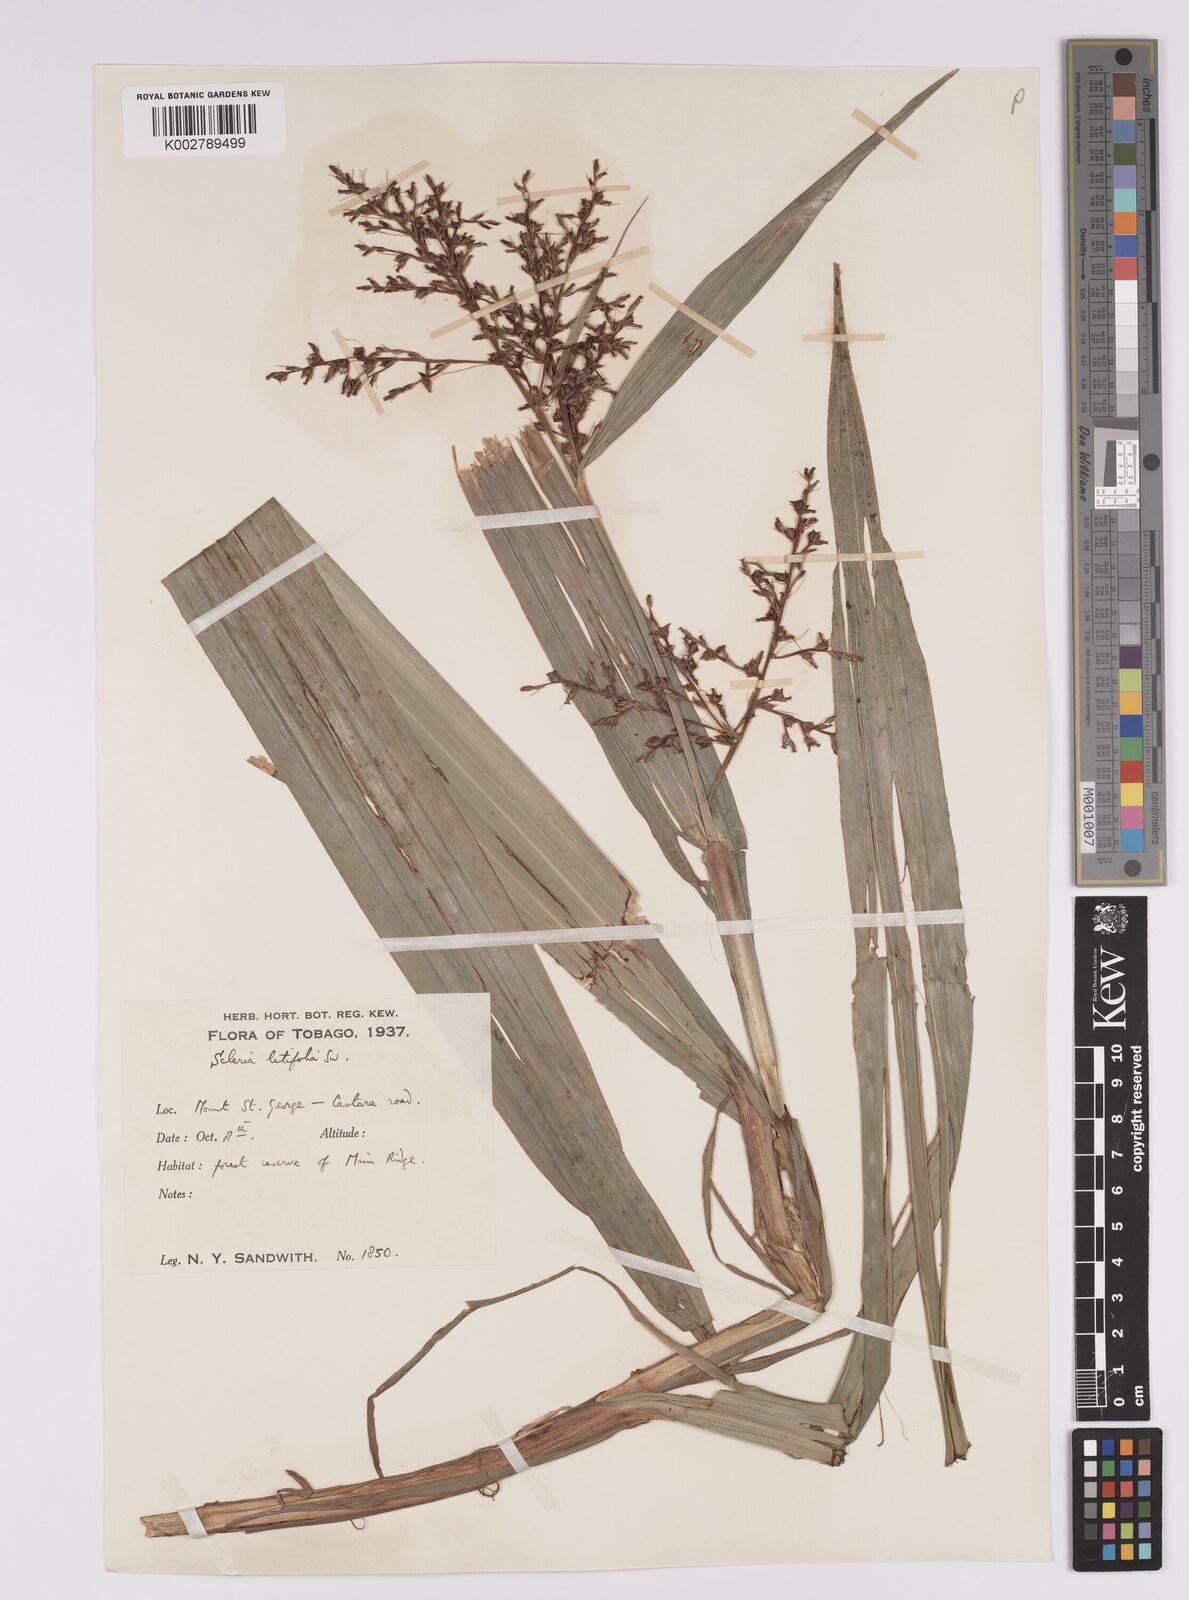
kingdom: Plantae
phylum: Tracheophyta
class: Liliopsida
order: Poales
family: Cyperaceae
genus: Scleria
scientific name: Scleria latifolia
